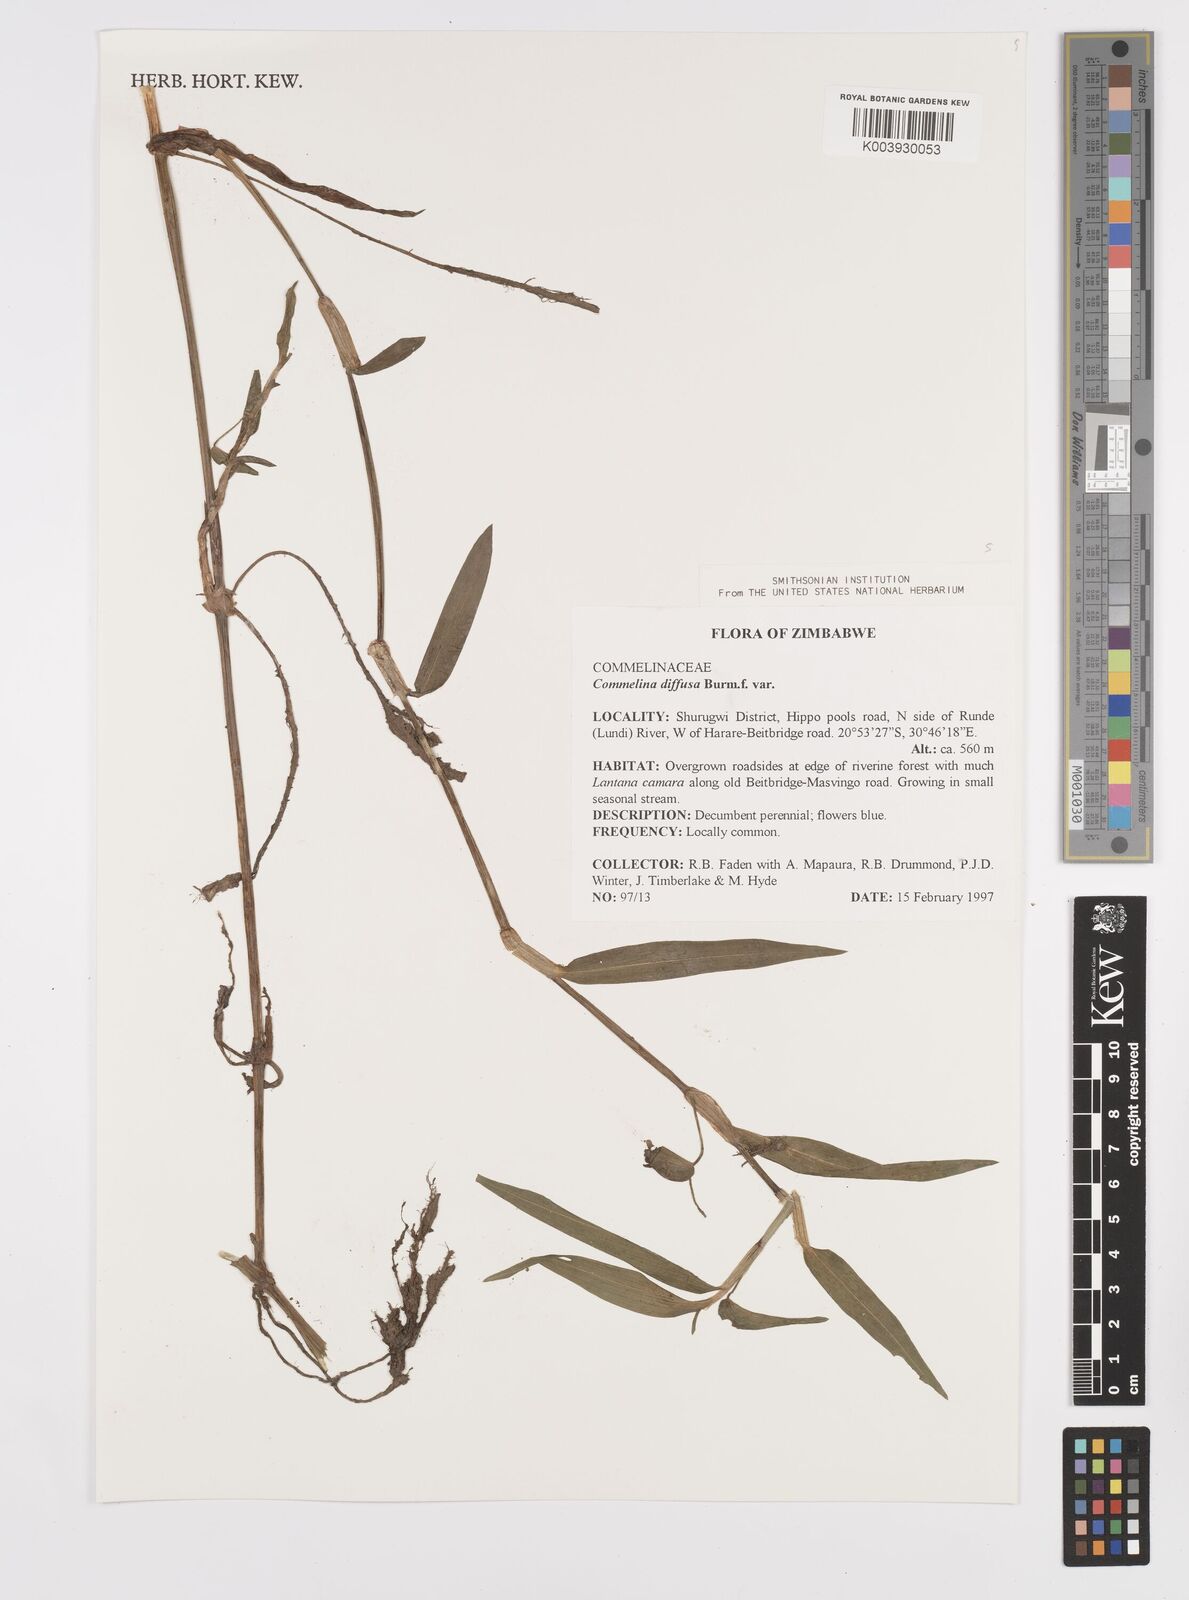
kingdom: Plantae
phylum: Tracheophyta
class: Liliopsida
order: Commelinales
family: Commelinaceae
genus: Commelina
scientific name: Commelina diffusa
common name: Climbing dayflower
